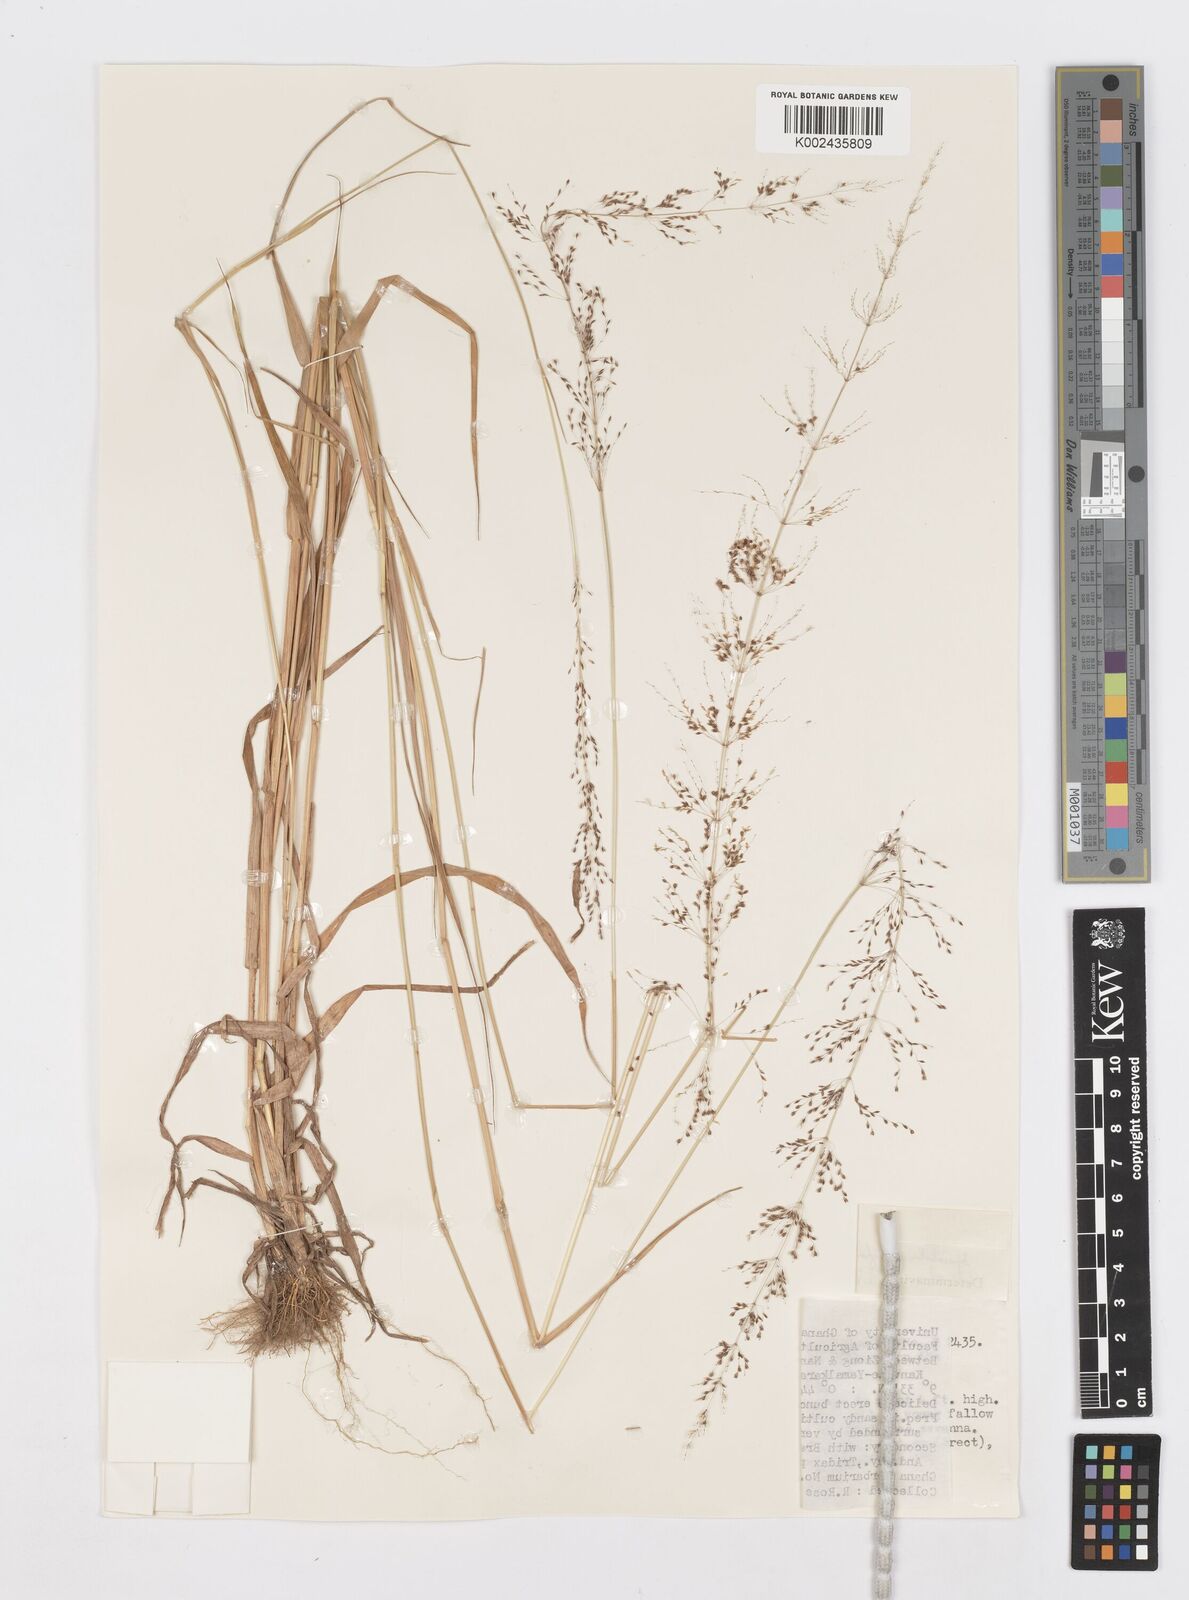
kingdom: Plantae
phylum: Tracheophyta
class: Liliopsida
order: Poales
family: Poaceae
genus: Sporobolus
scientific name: Sporobolus subglobosus
